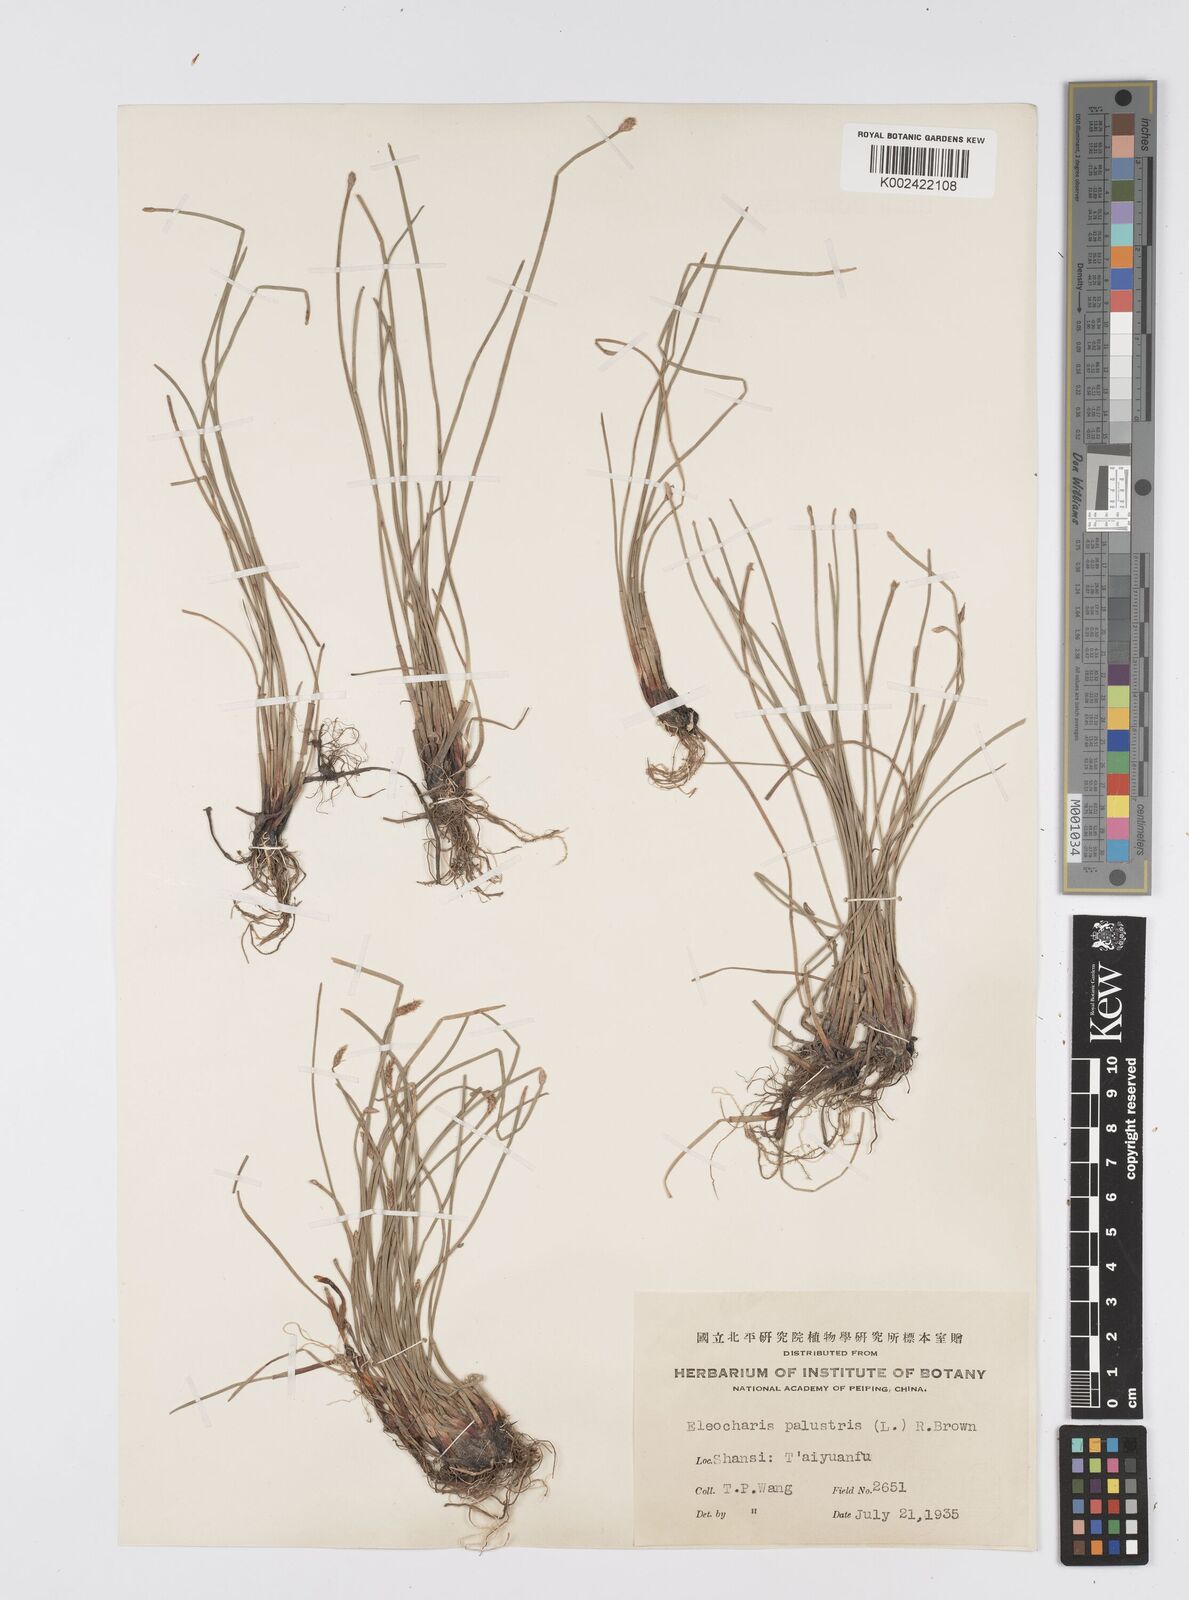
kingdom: Plantae
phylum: Tracheophyta
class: Liliopsida
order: Poales
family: Cyperaceae
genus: Eleocharis
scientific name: Eleocharis palustris
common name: Common spike-rush
